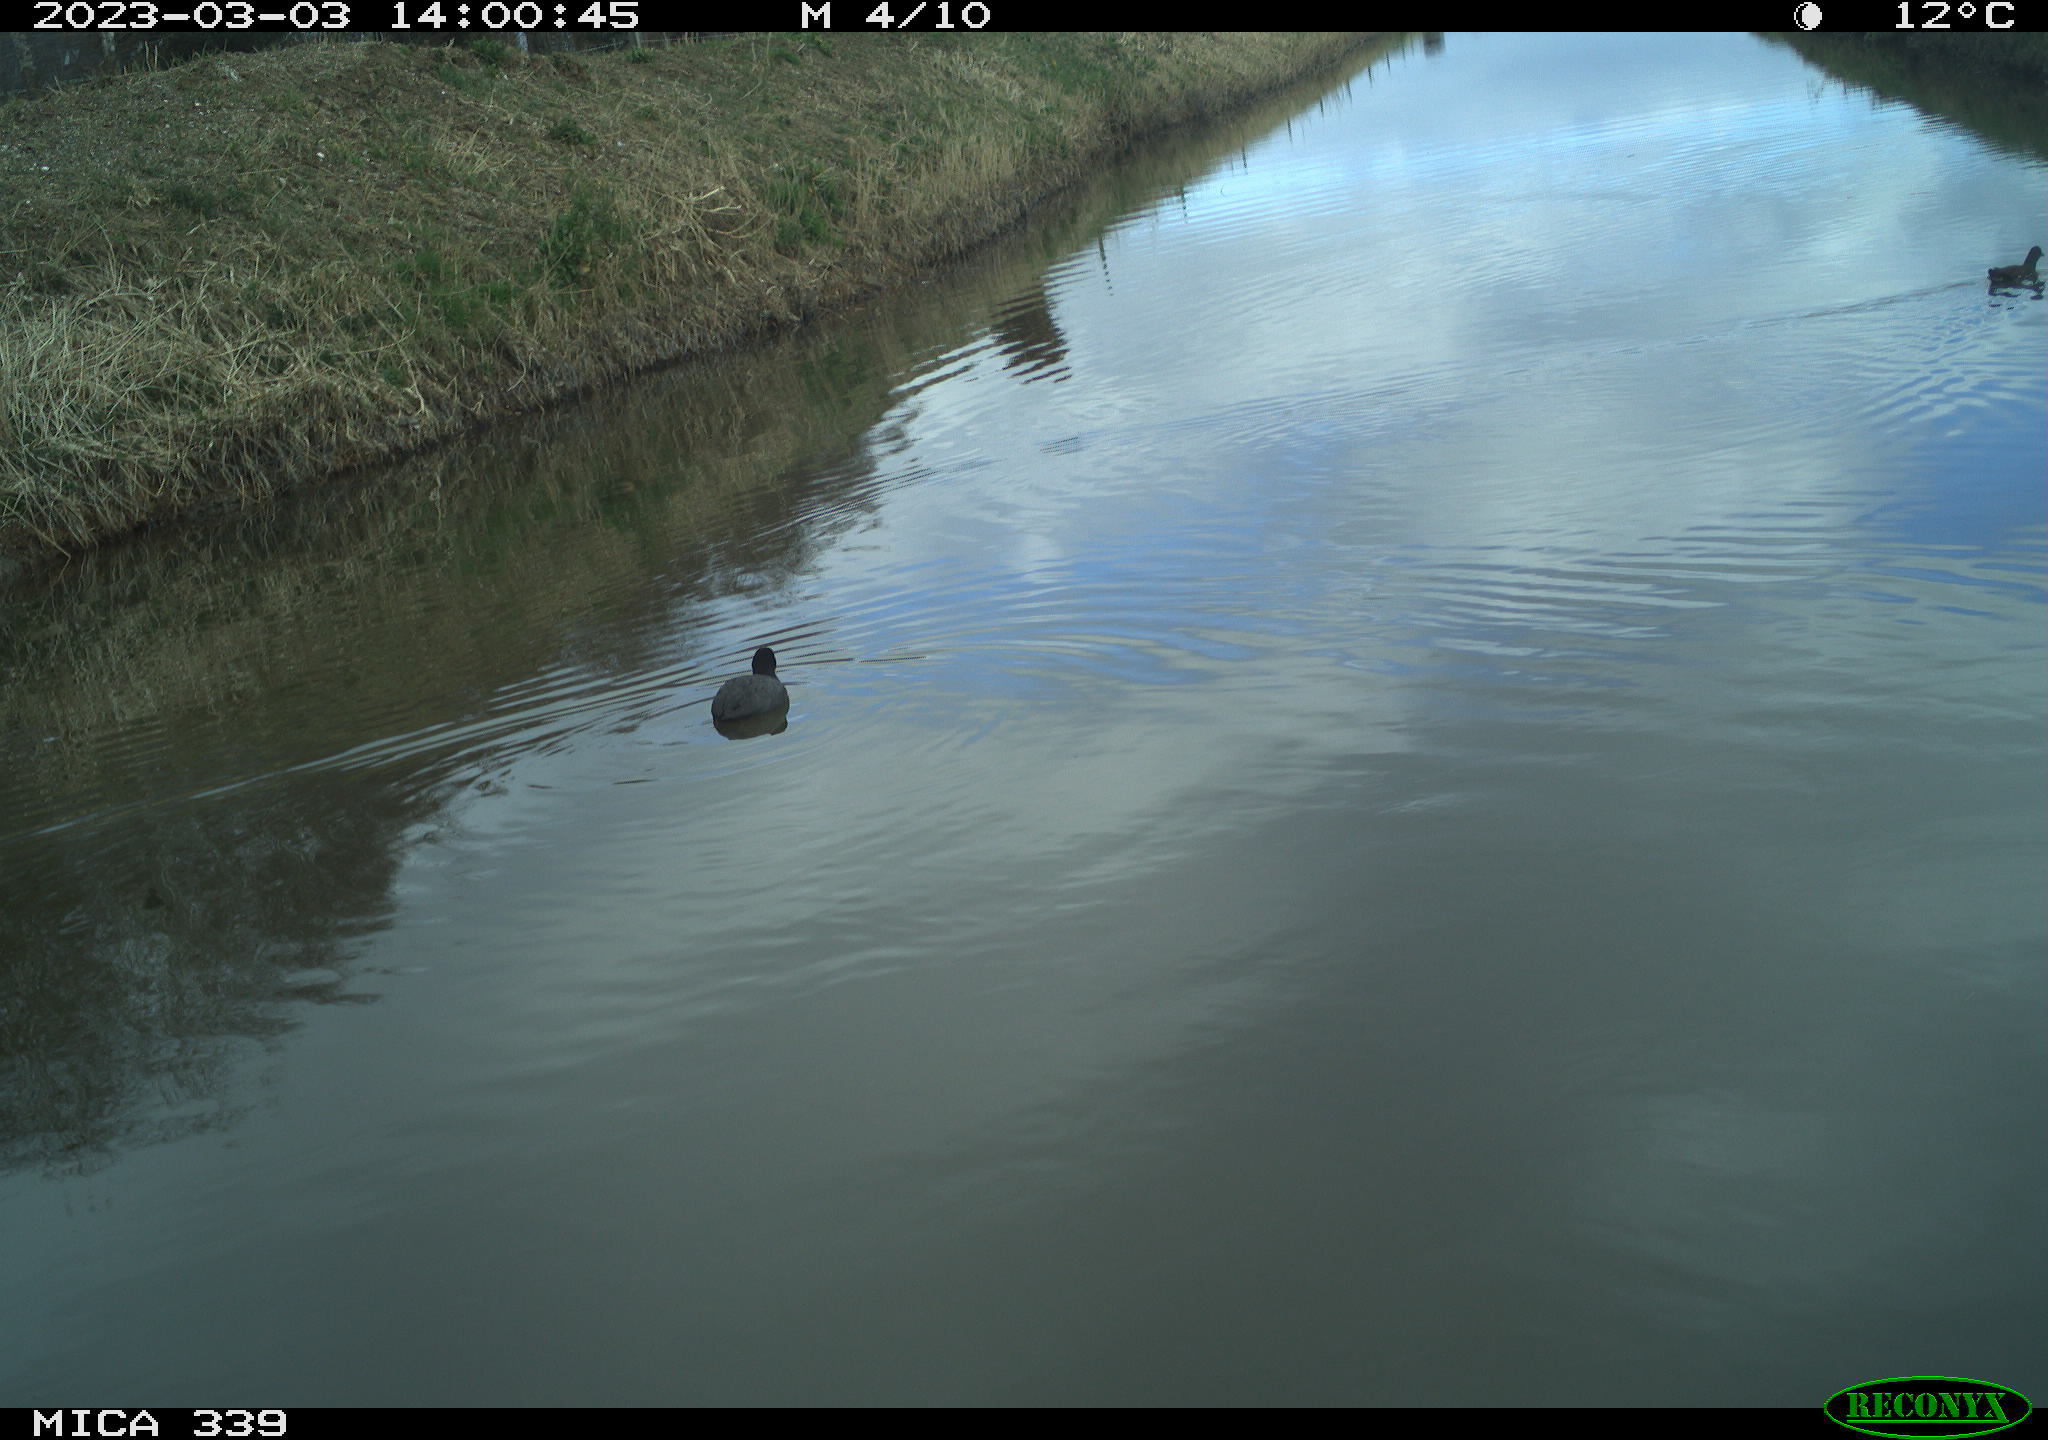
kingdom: Animalia
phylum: Chordata
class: Aves
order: Gruiformes
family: Rallidae
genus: Fulica
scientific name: Fulica atra
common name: Eurasian coot
